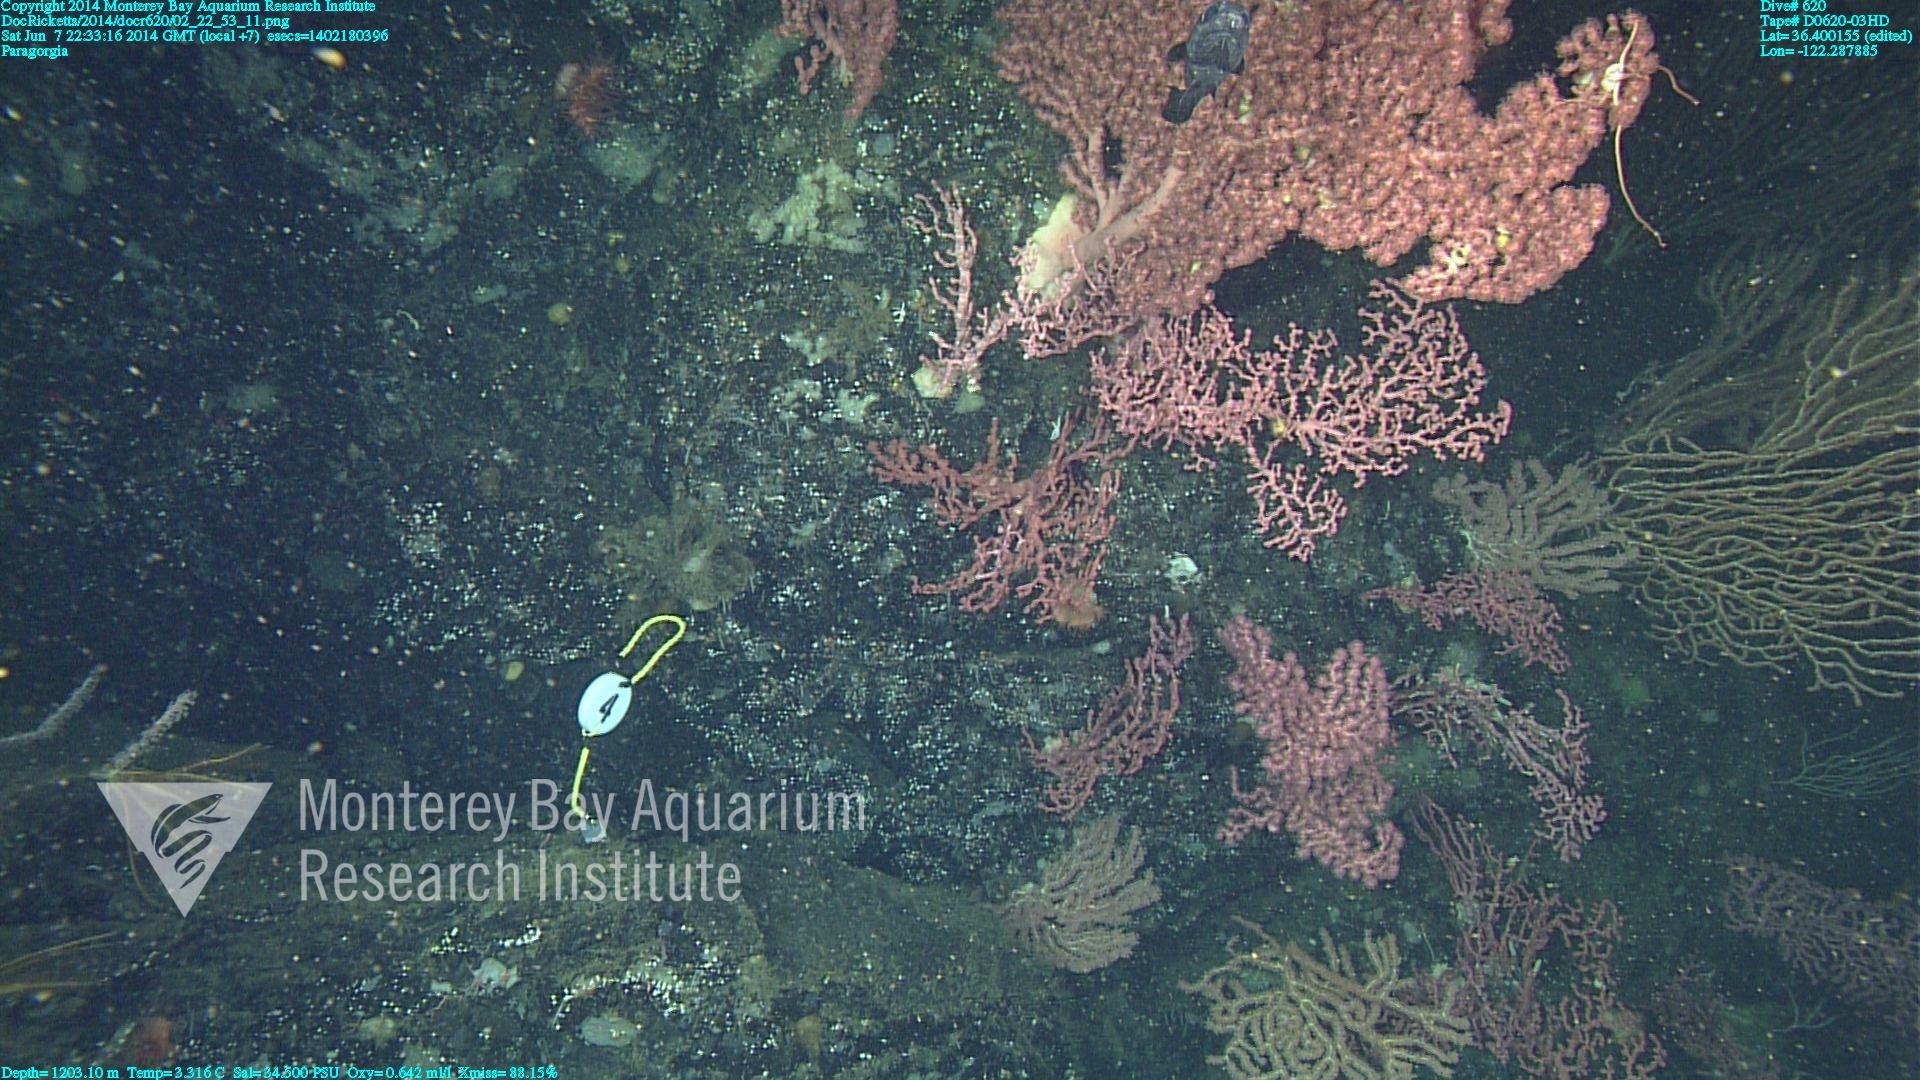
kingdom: Animalia
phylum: Cnidaria
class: Anthozoa
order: Scleralcyonacea
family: Coralliidae
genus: Paragorgia
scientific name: Paragorgia arborea
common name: Bubble gum coral
